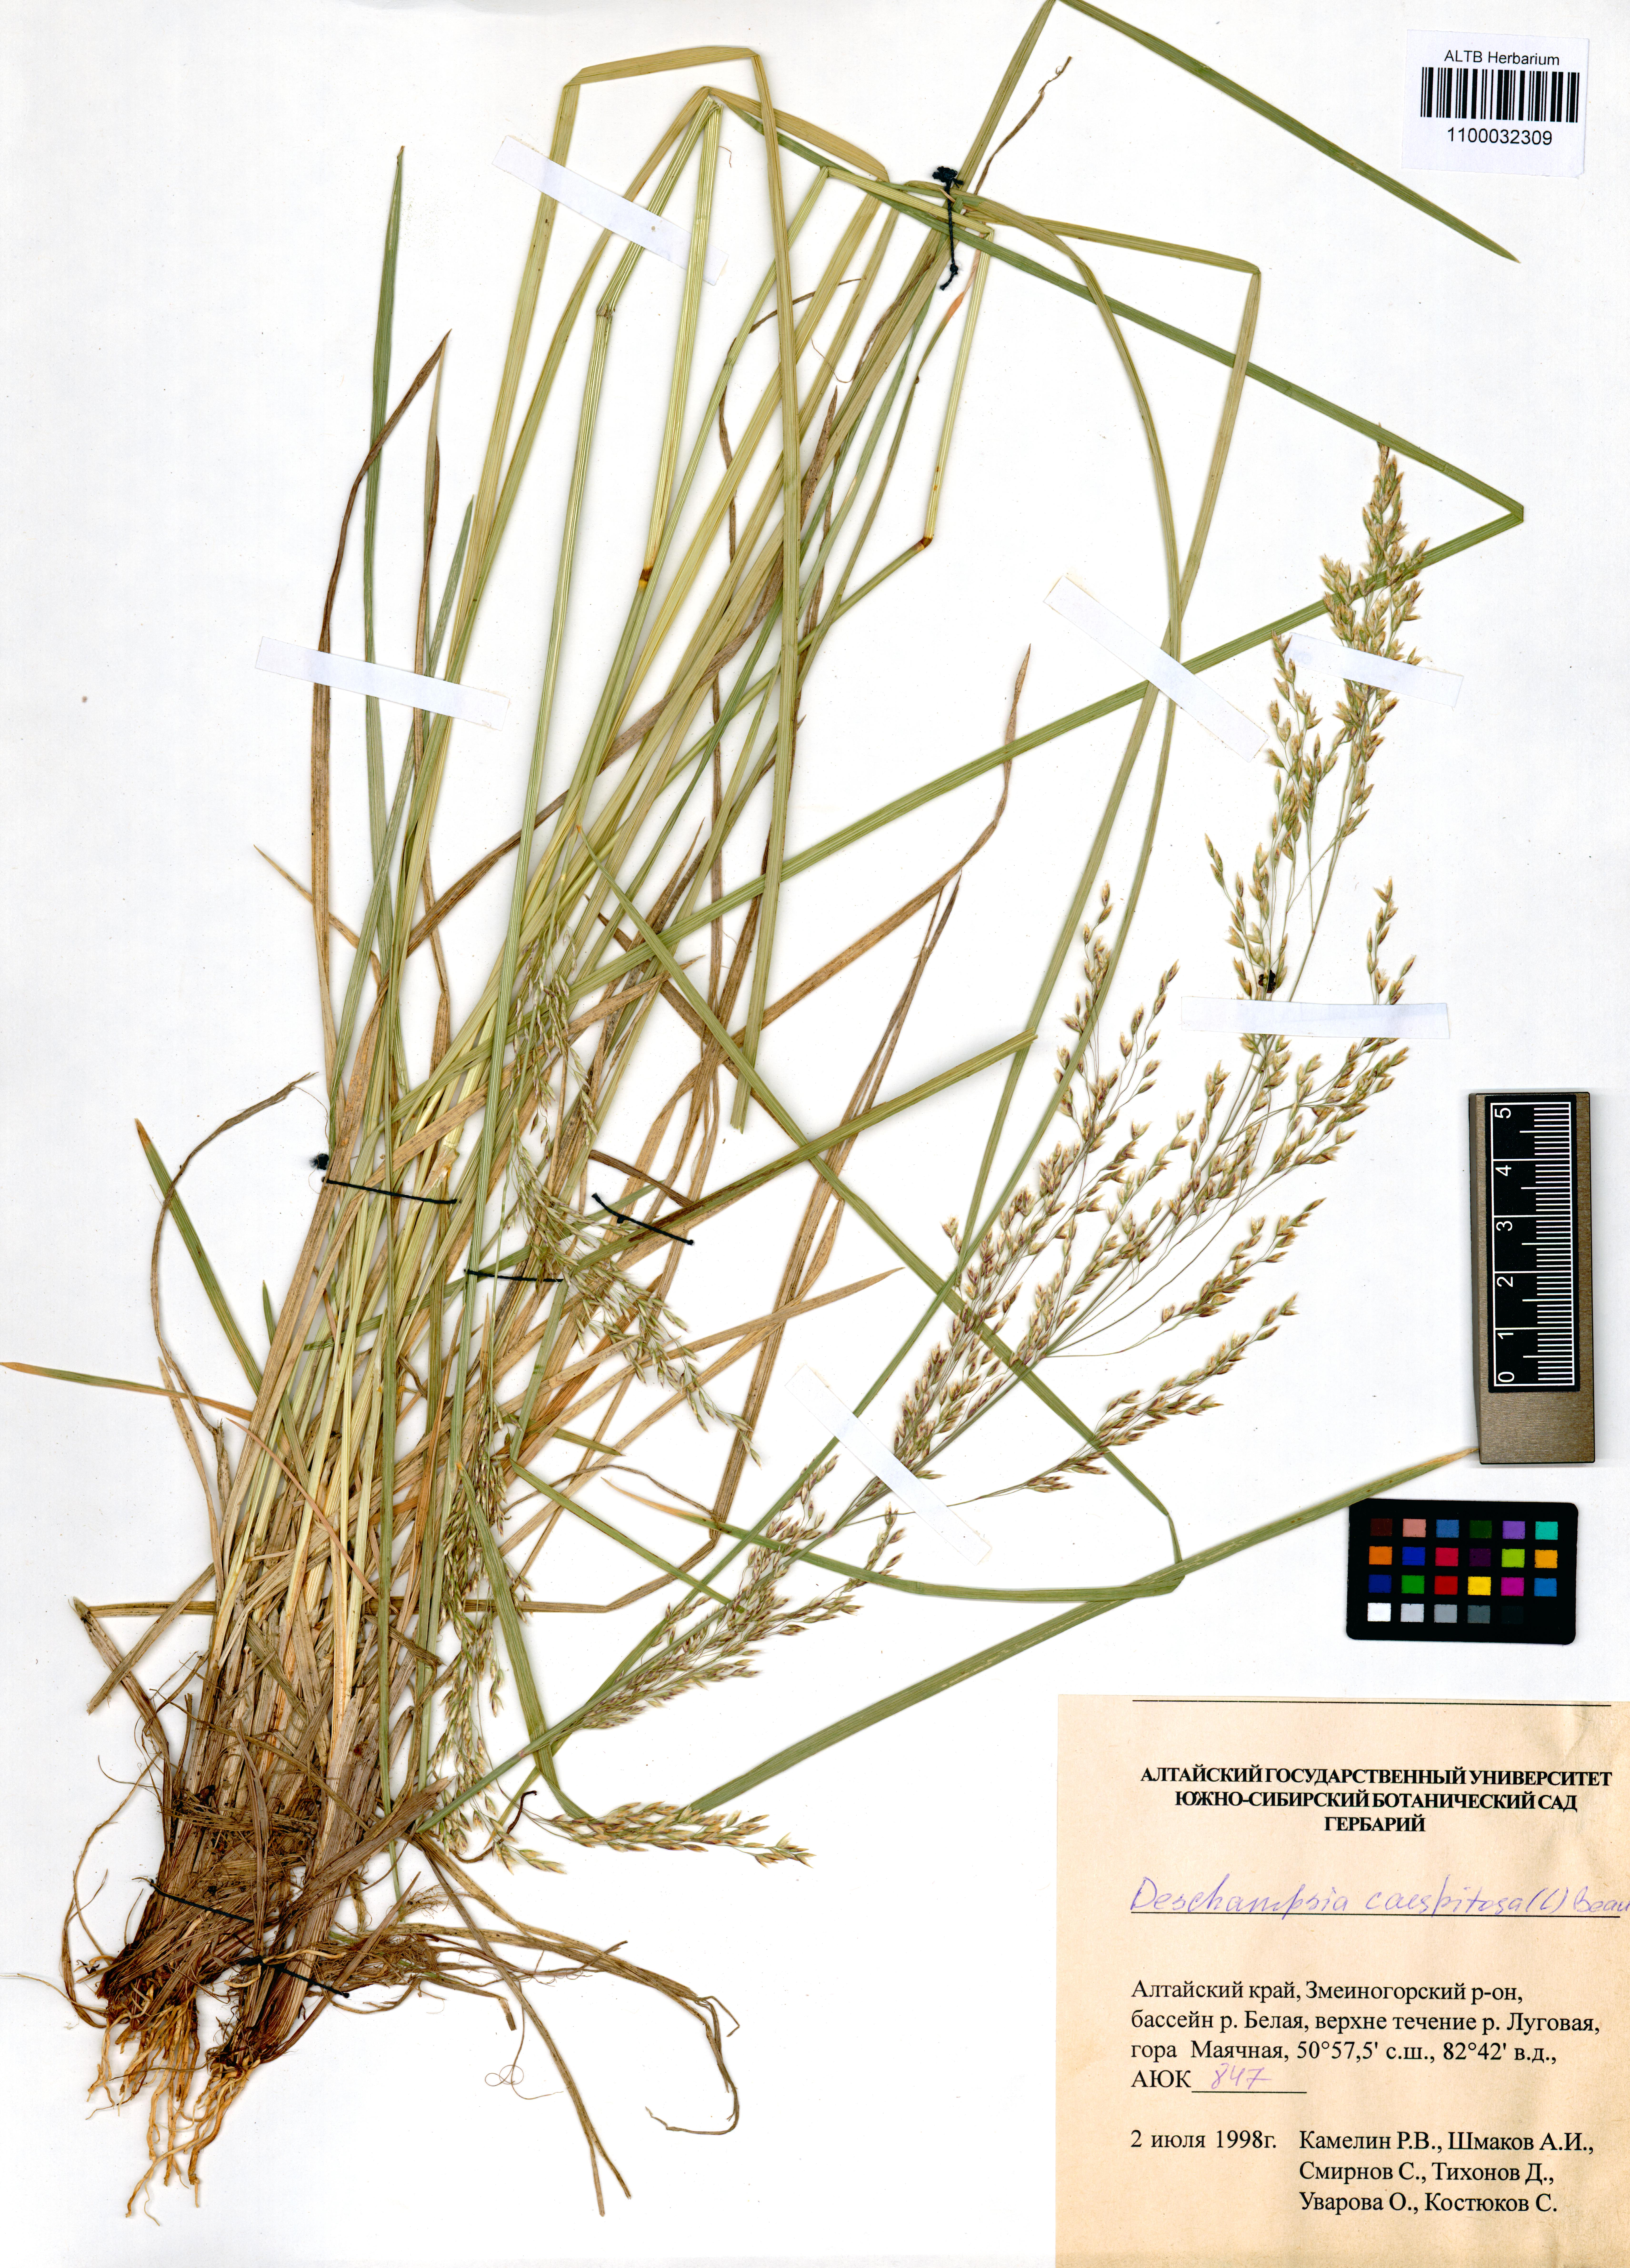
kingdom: Plantae
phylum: Tracheophyta
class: Liliopsida
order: Poales
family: Poaceae
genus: Deschampsia
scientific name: Deschampsia cespitosa
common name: Tufted hair-grass
